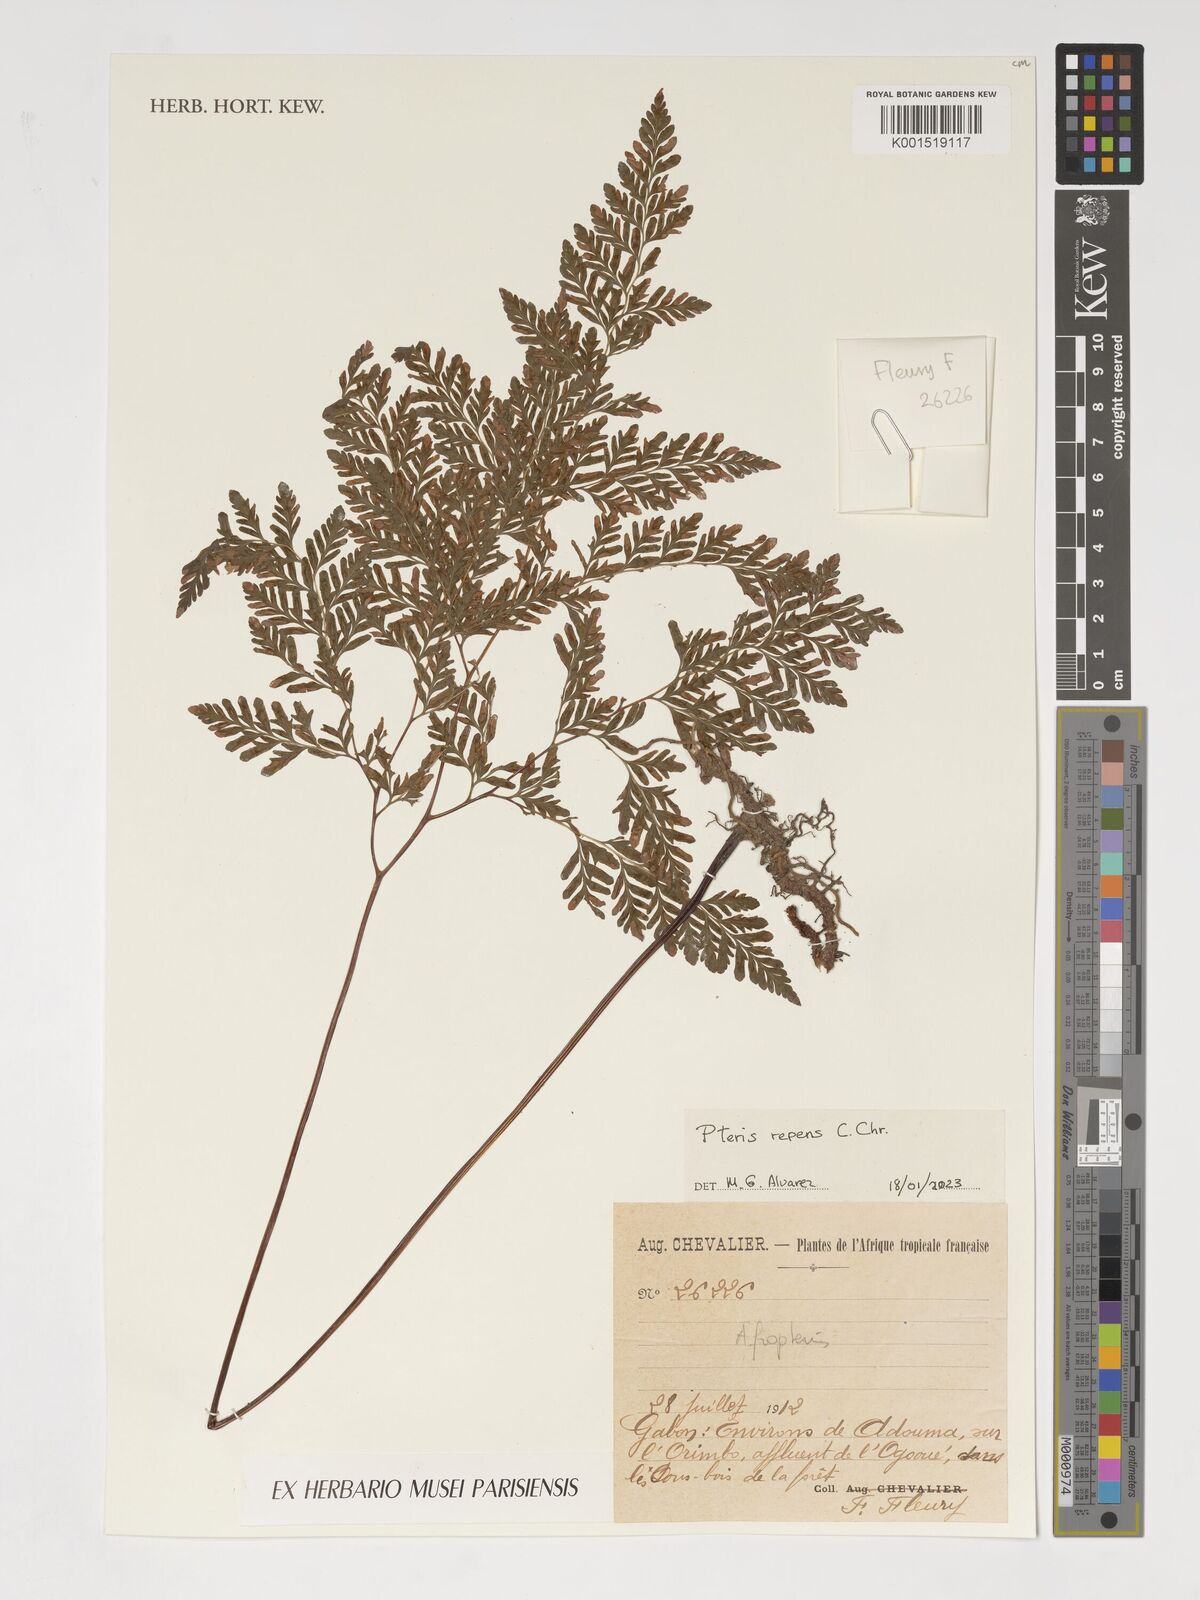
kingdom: Plantae
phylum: Tracheophyta
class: Polypodiopsida
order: Polypodiales
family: Pteridaceae
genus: Pteris
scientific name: Pteris repens
